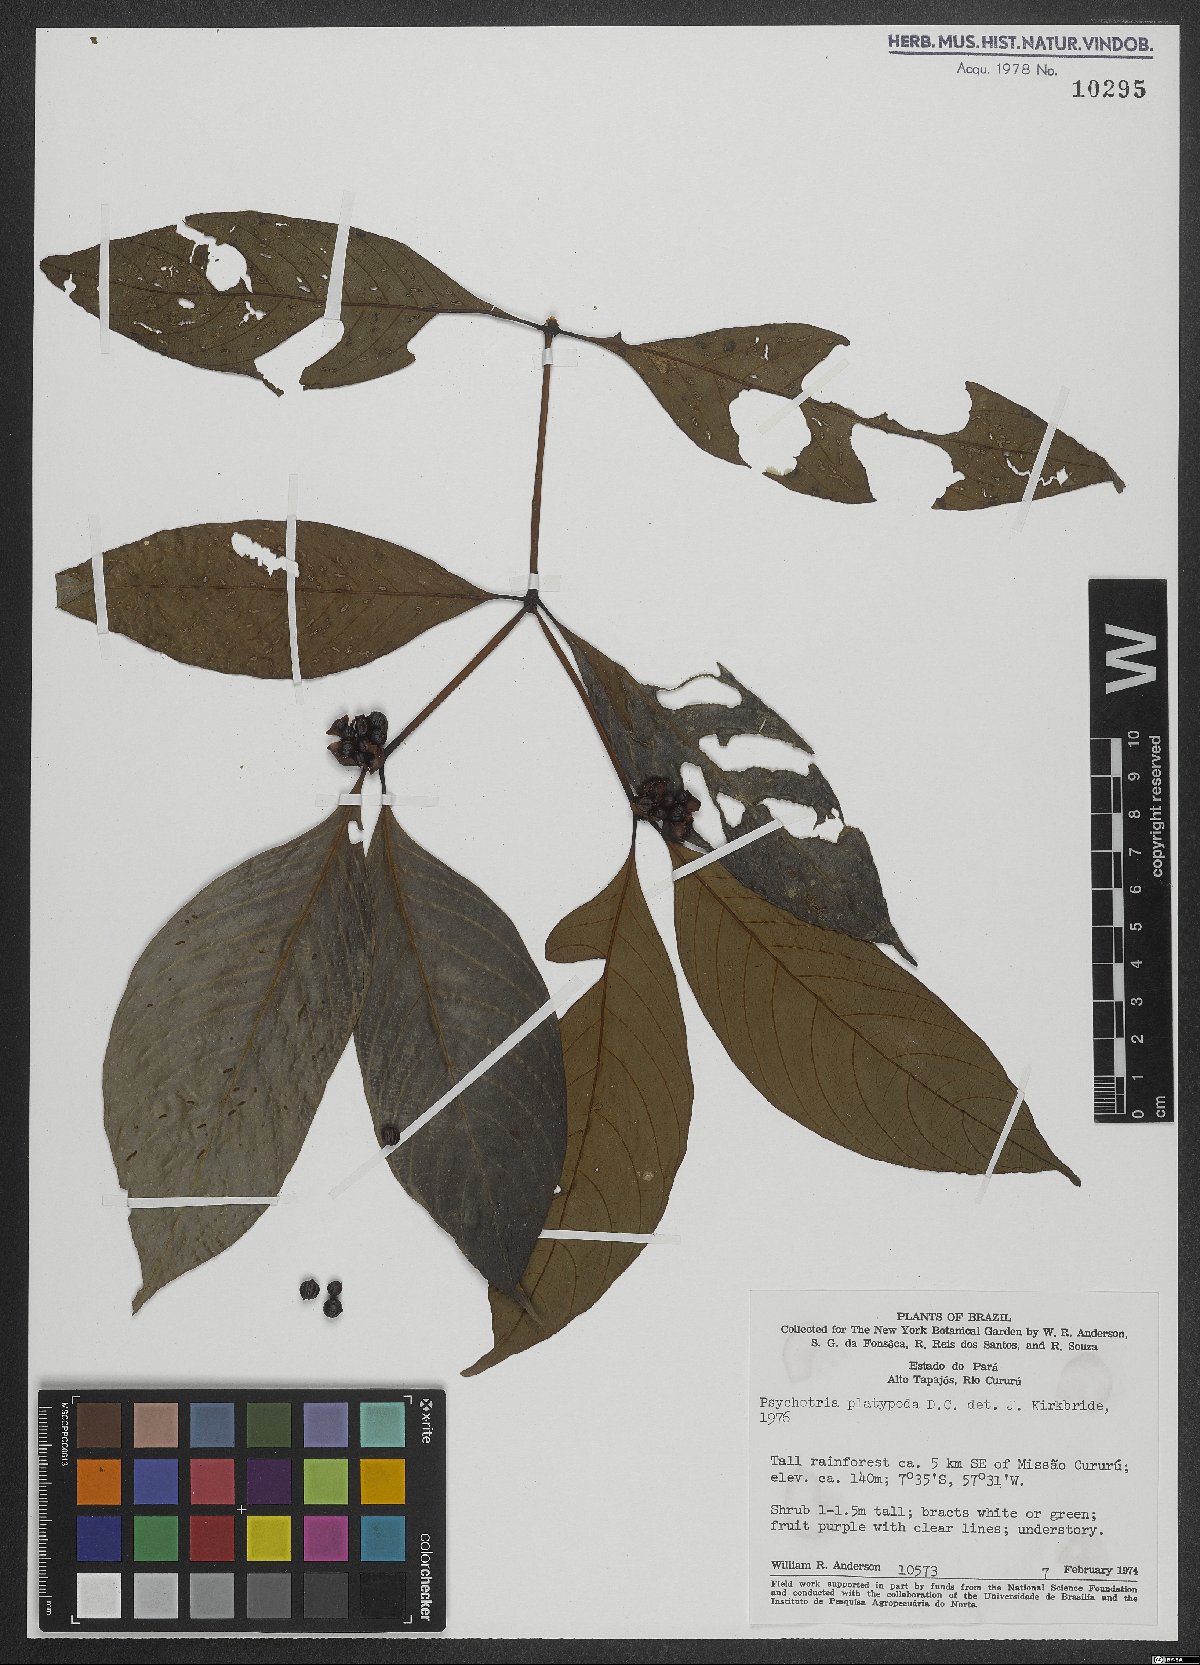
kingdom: Plantae
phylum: Tracheophyta
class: Magnoliopsida
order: Gentianales
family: Rubiaceae
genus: Palicourea
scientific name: Palicourea dichotoma
